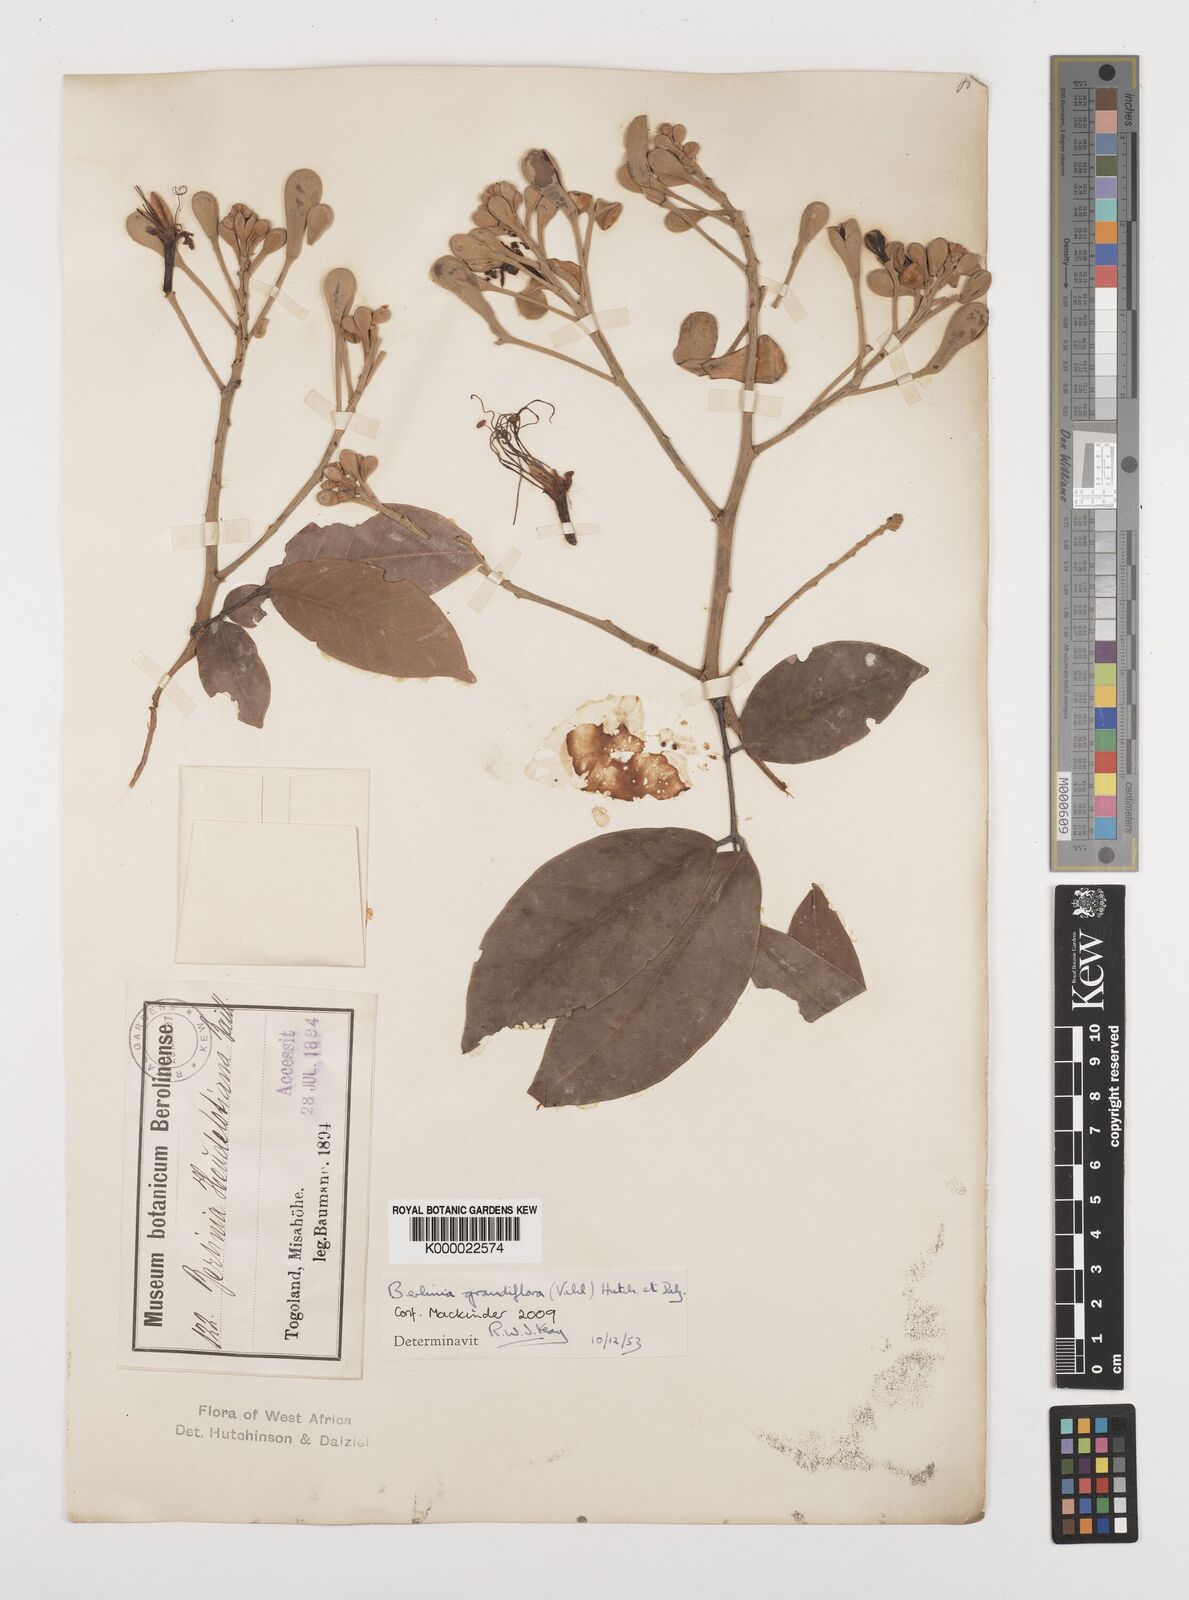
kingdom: Plantae
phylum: Tracheophyta
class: Magnoliopsida
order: Fabales
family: Fabaceae
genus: Berlinia
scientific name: Berlinia grandiflora
